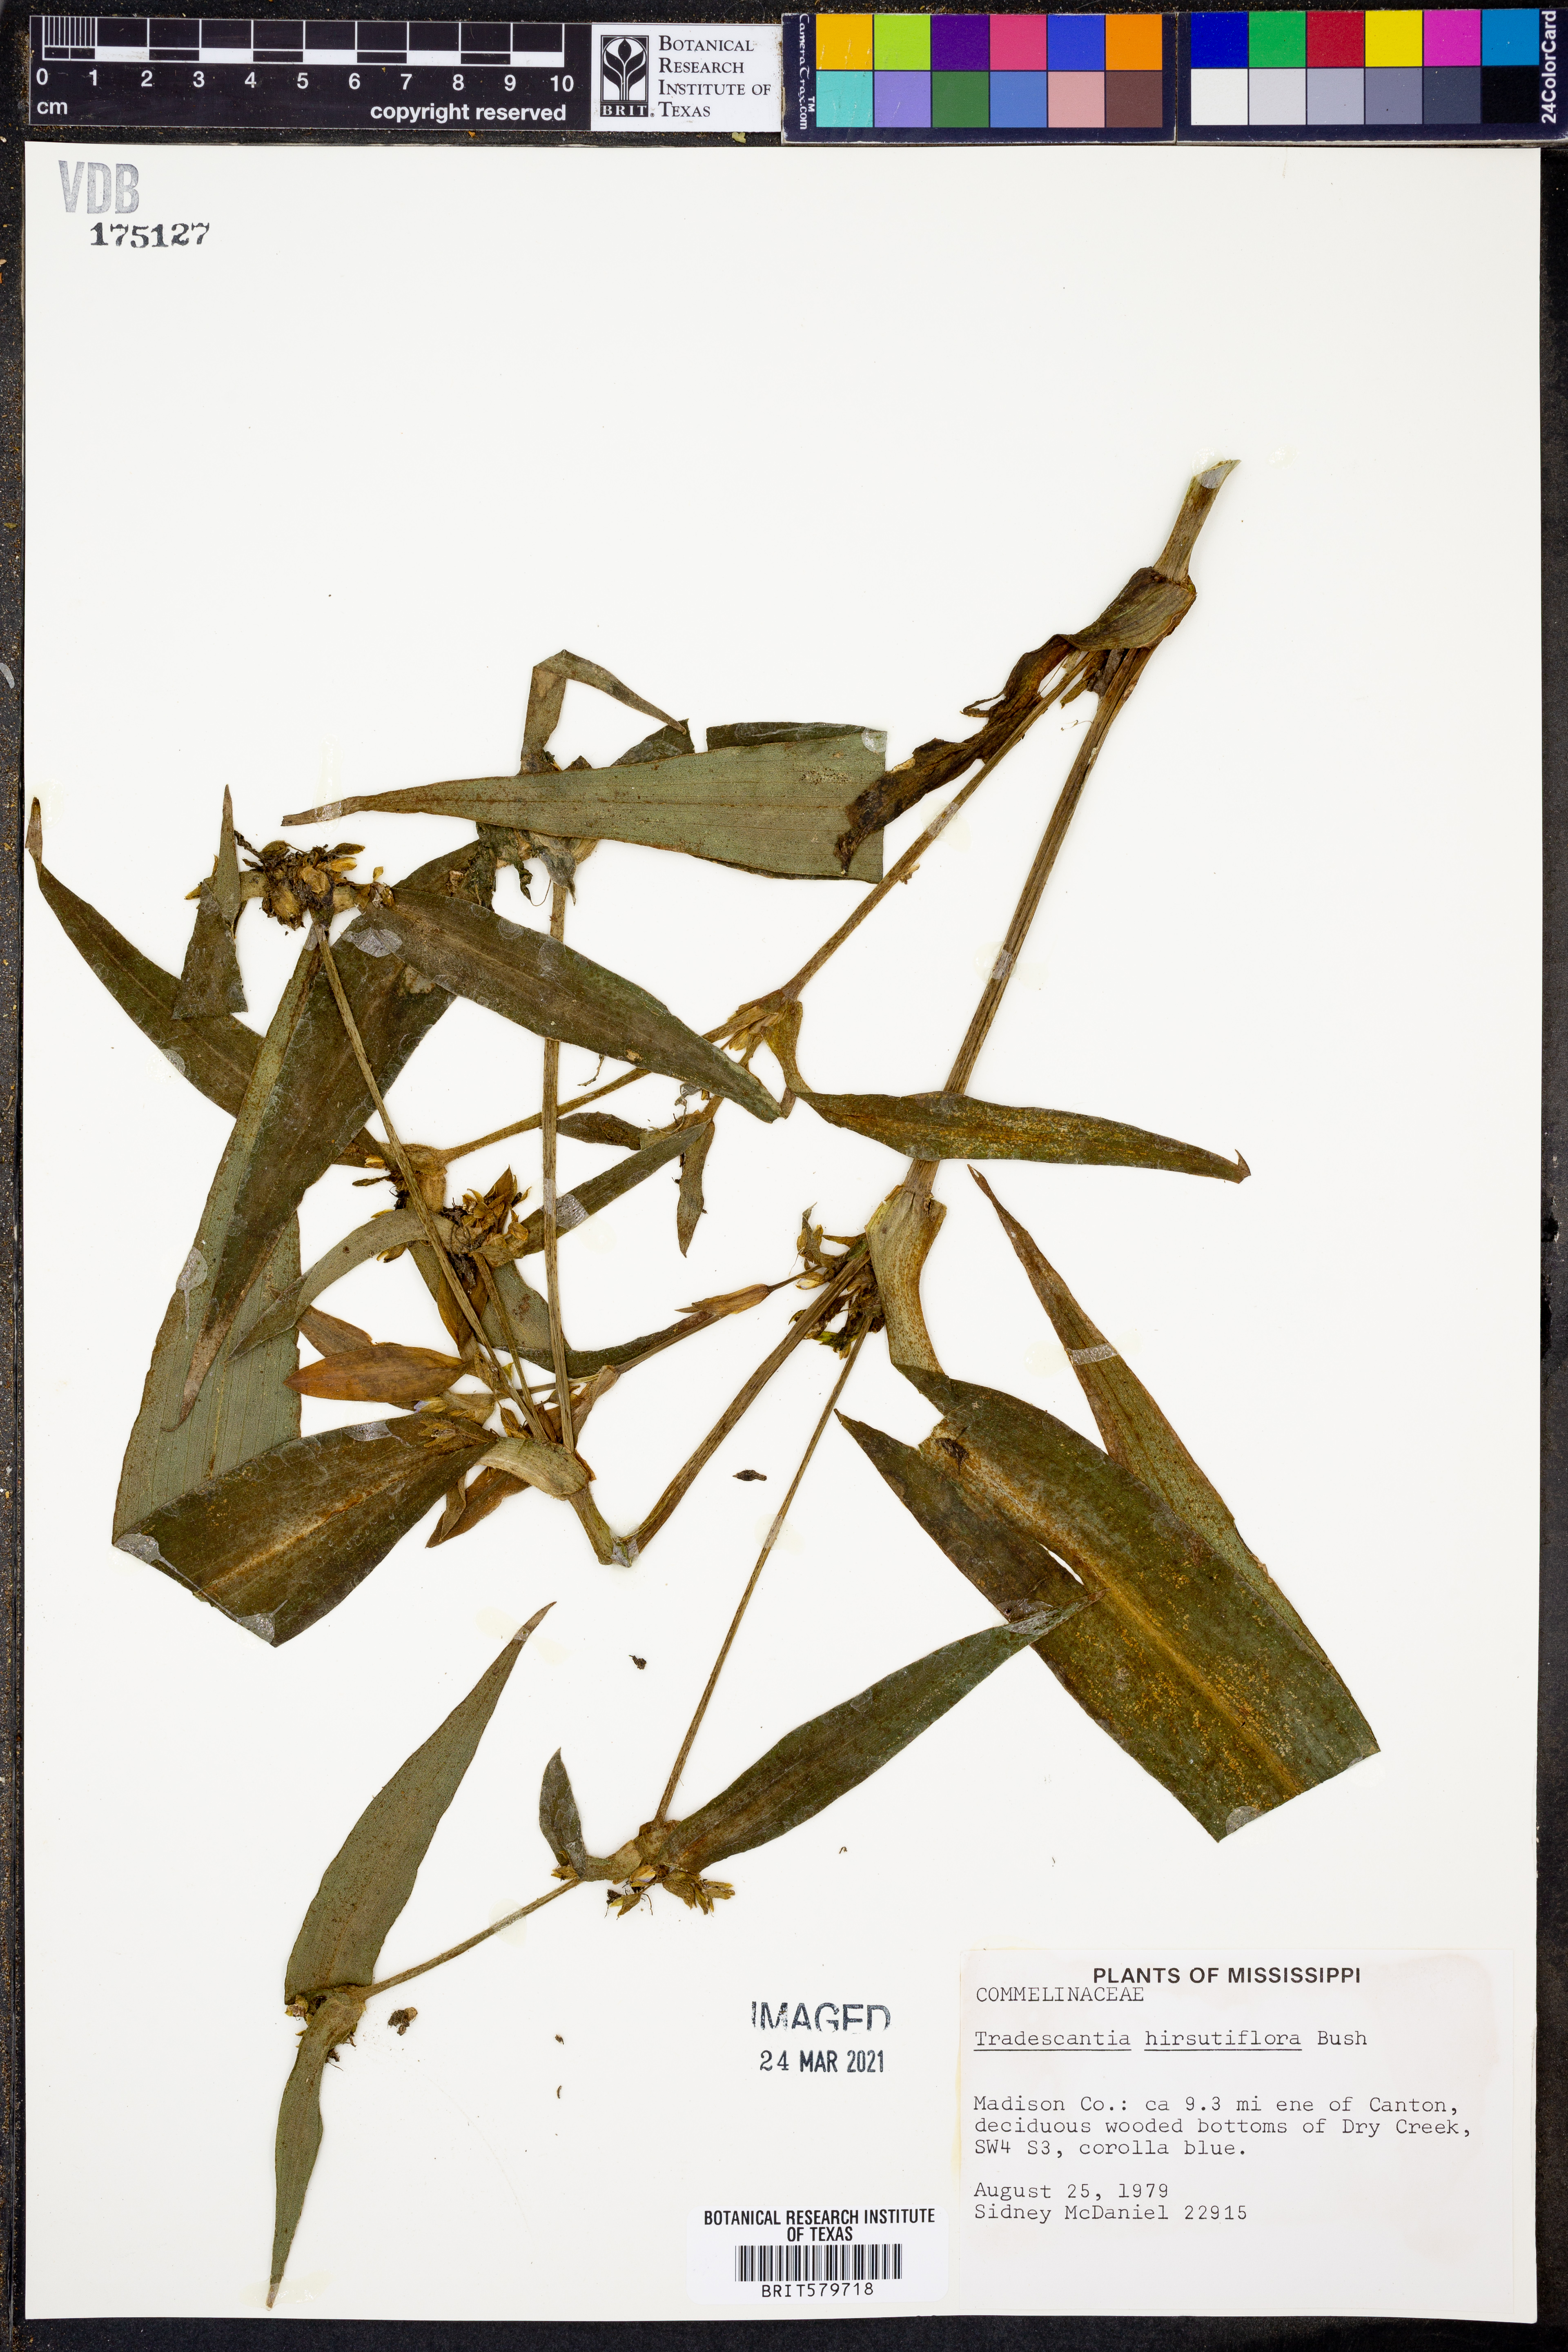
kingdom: Plantae
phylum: Tracheophyta
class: Liliopsida
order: Commelinales
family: Commelinaceae
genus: Tradescantia
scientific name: Tradescantia hirsutiflora
